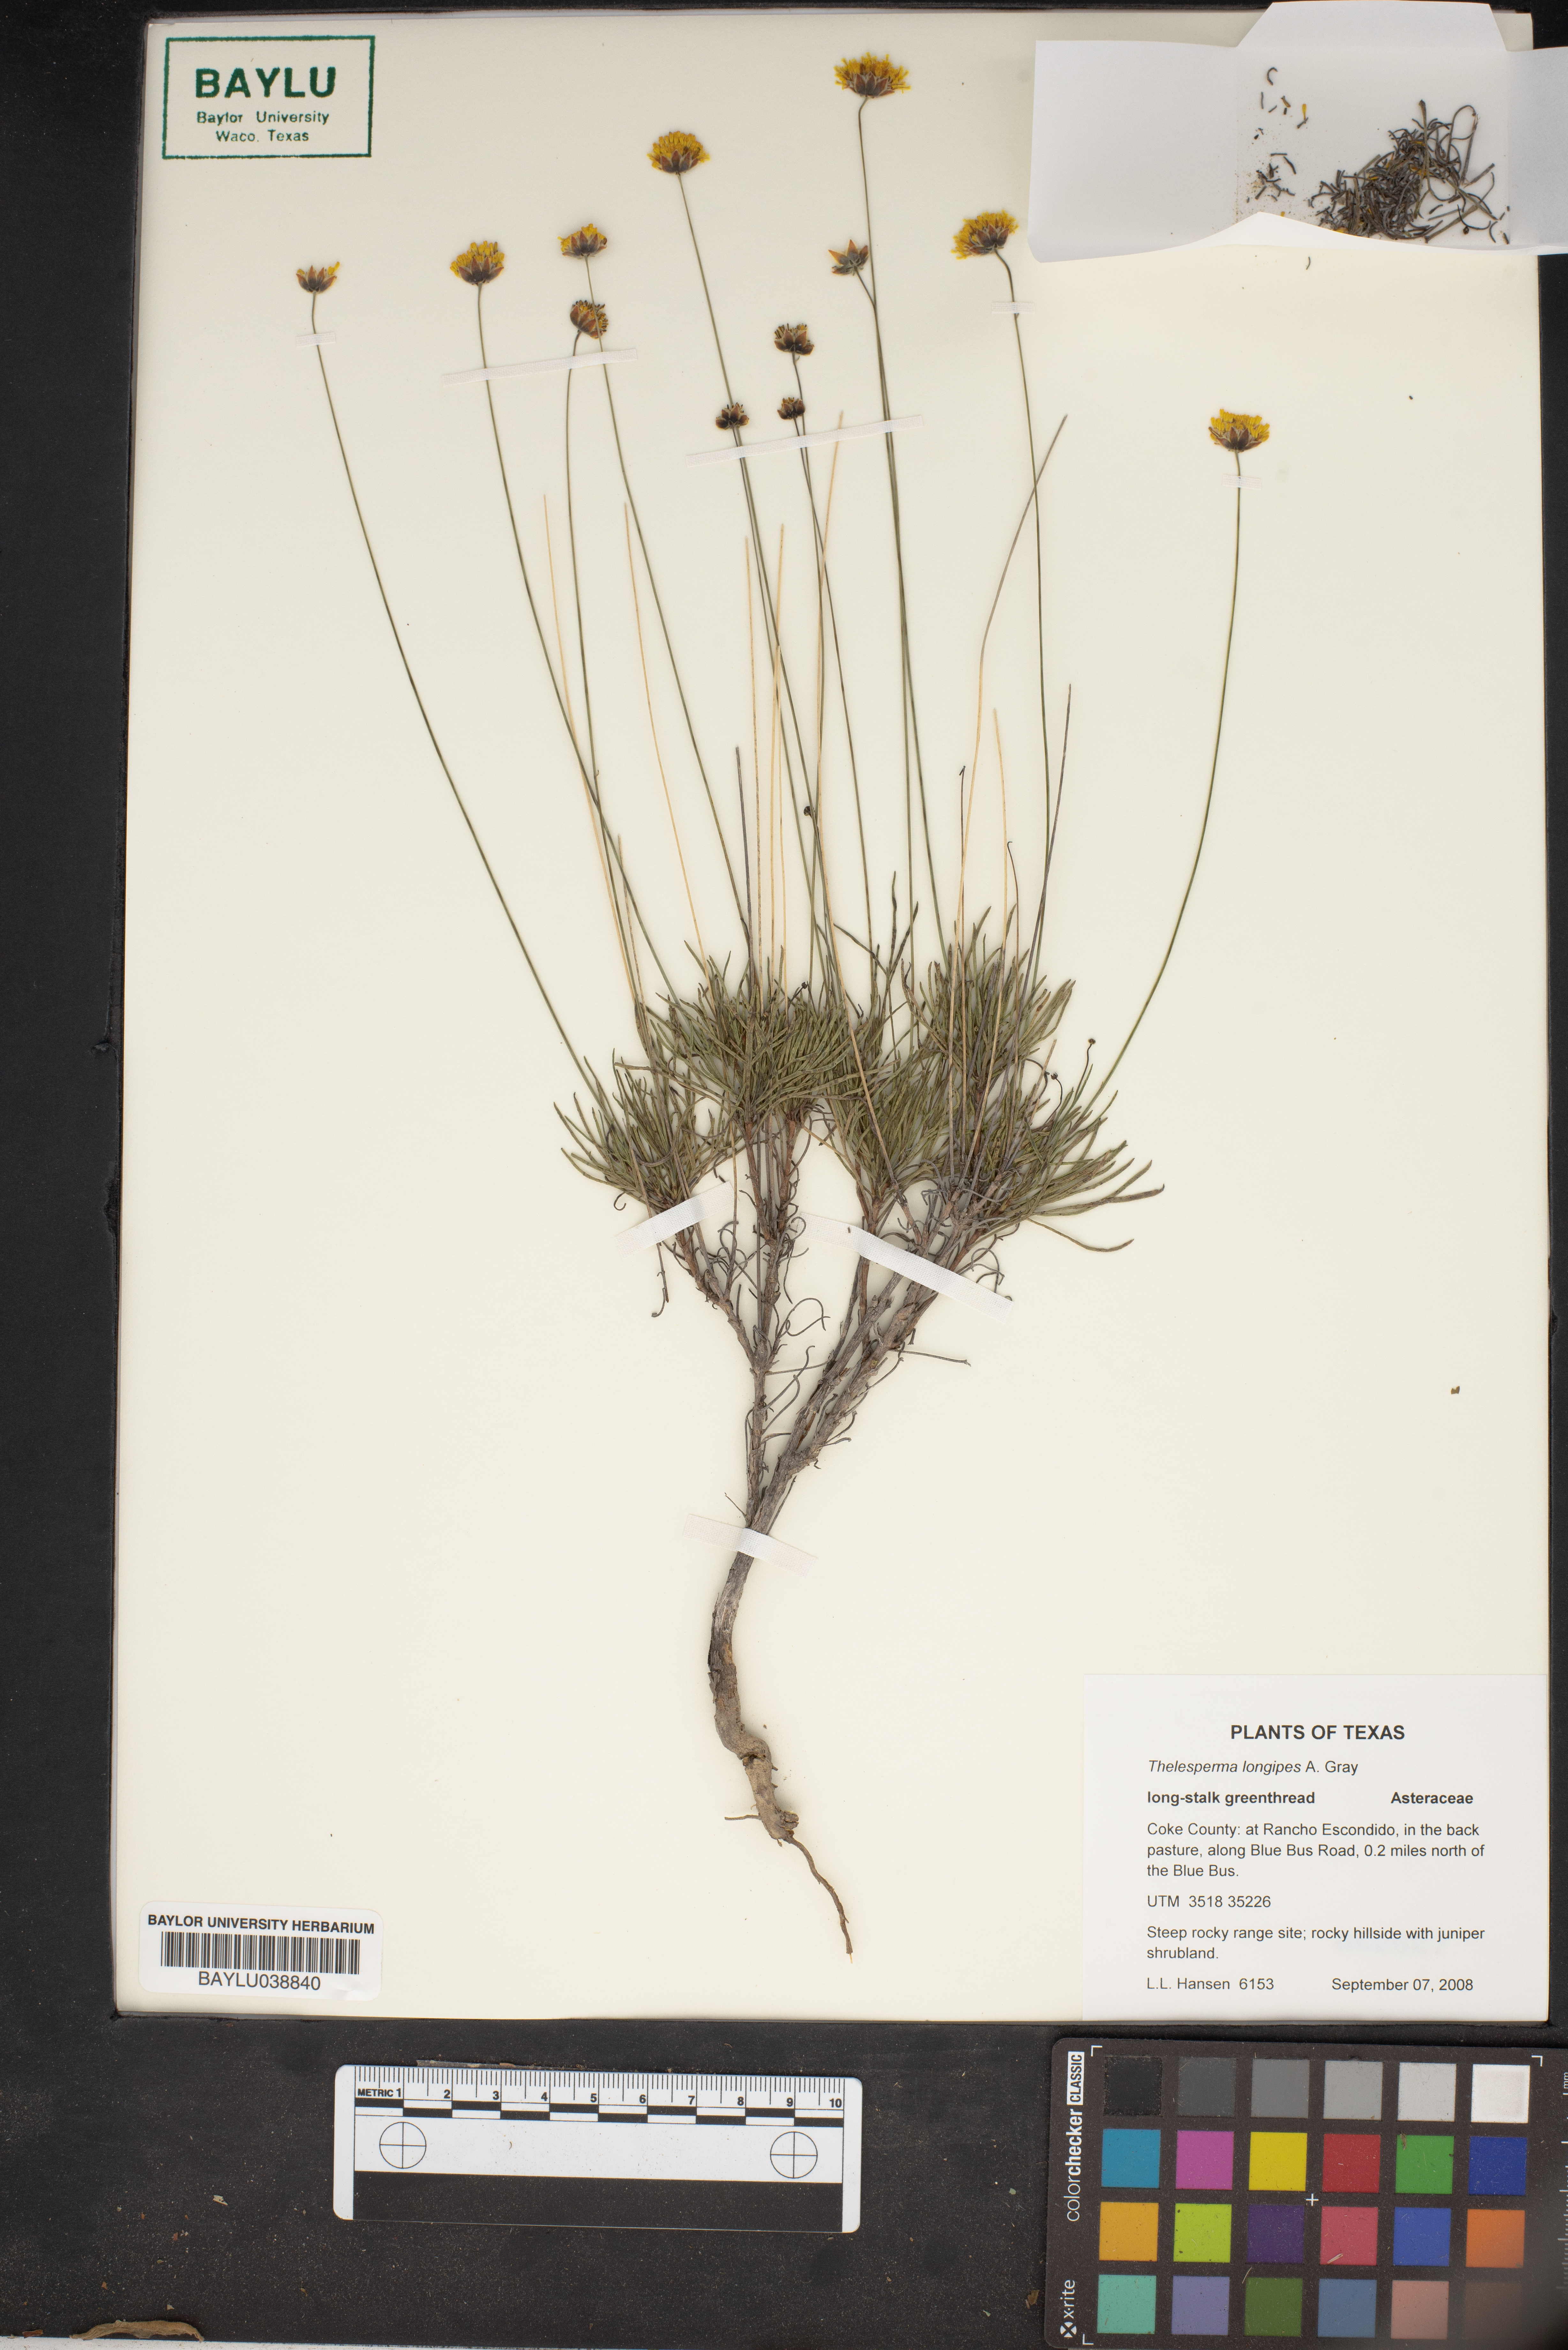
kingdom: Plantae
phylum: Tracheophyta
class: Magnoliopsida
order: Asterales
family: Asteraceae
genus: Thelesperma
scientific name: Thelesperma longipes
